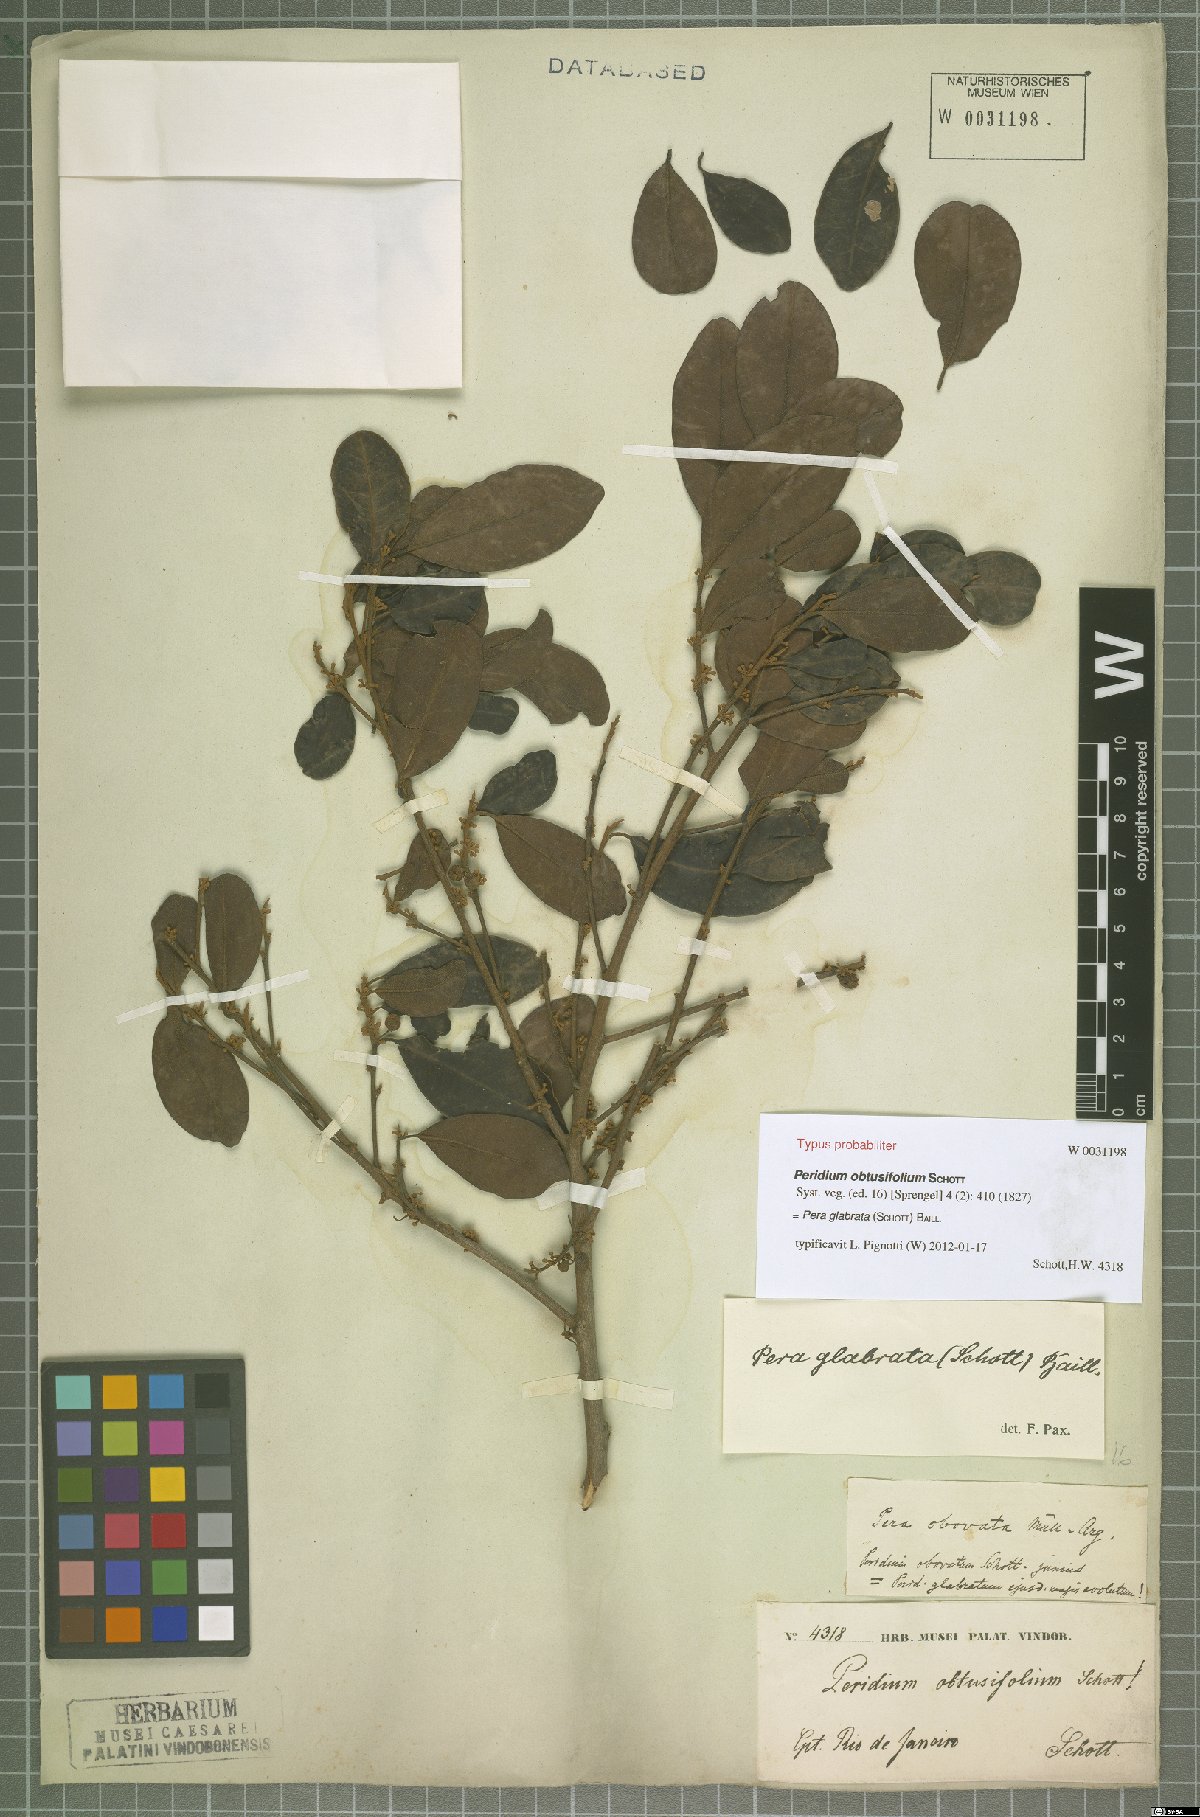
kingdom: Plantae
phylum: Tracheophyta
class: Magnoliopsida
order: Malpighiales
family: Peraceae
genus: Pera
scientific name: Pera glabrata
